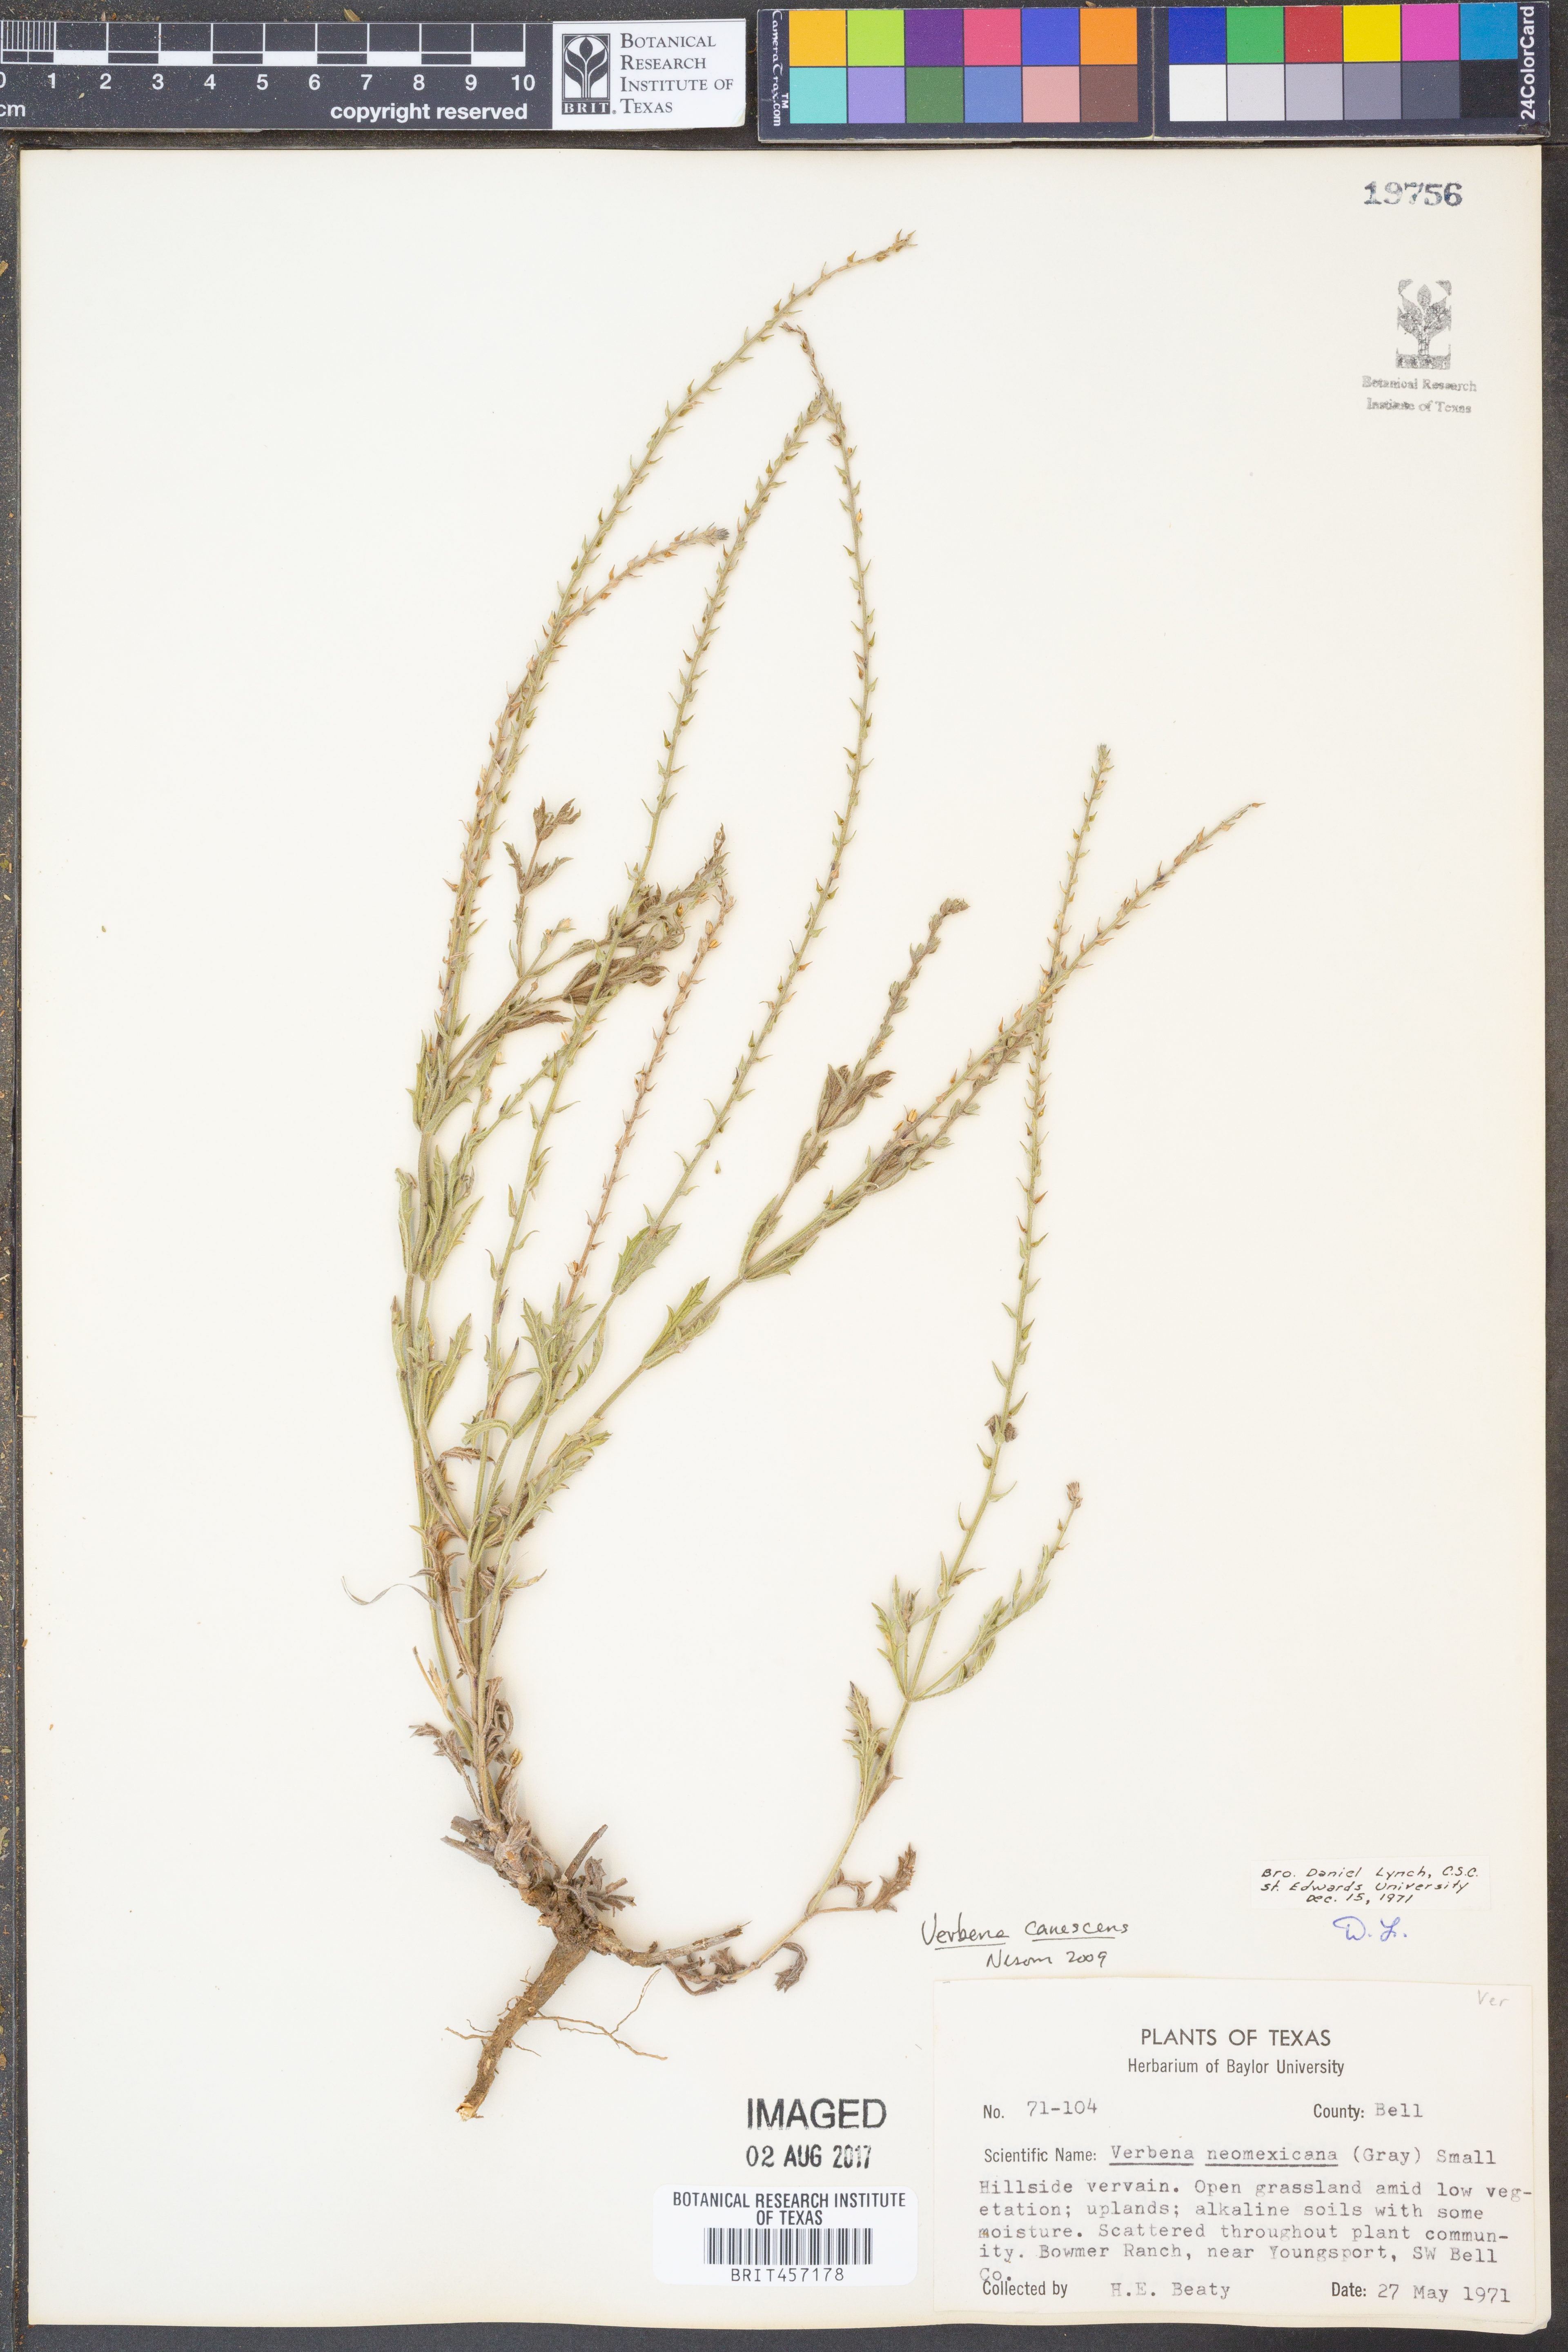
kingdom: Plantae
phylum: Tracheophyta
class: Magnoliopsida
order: Lamiales
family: Verbenaceae
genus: Verbena
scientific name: Verbena canescens
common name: Gray vervain
